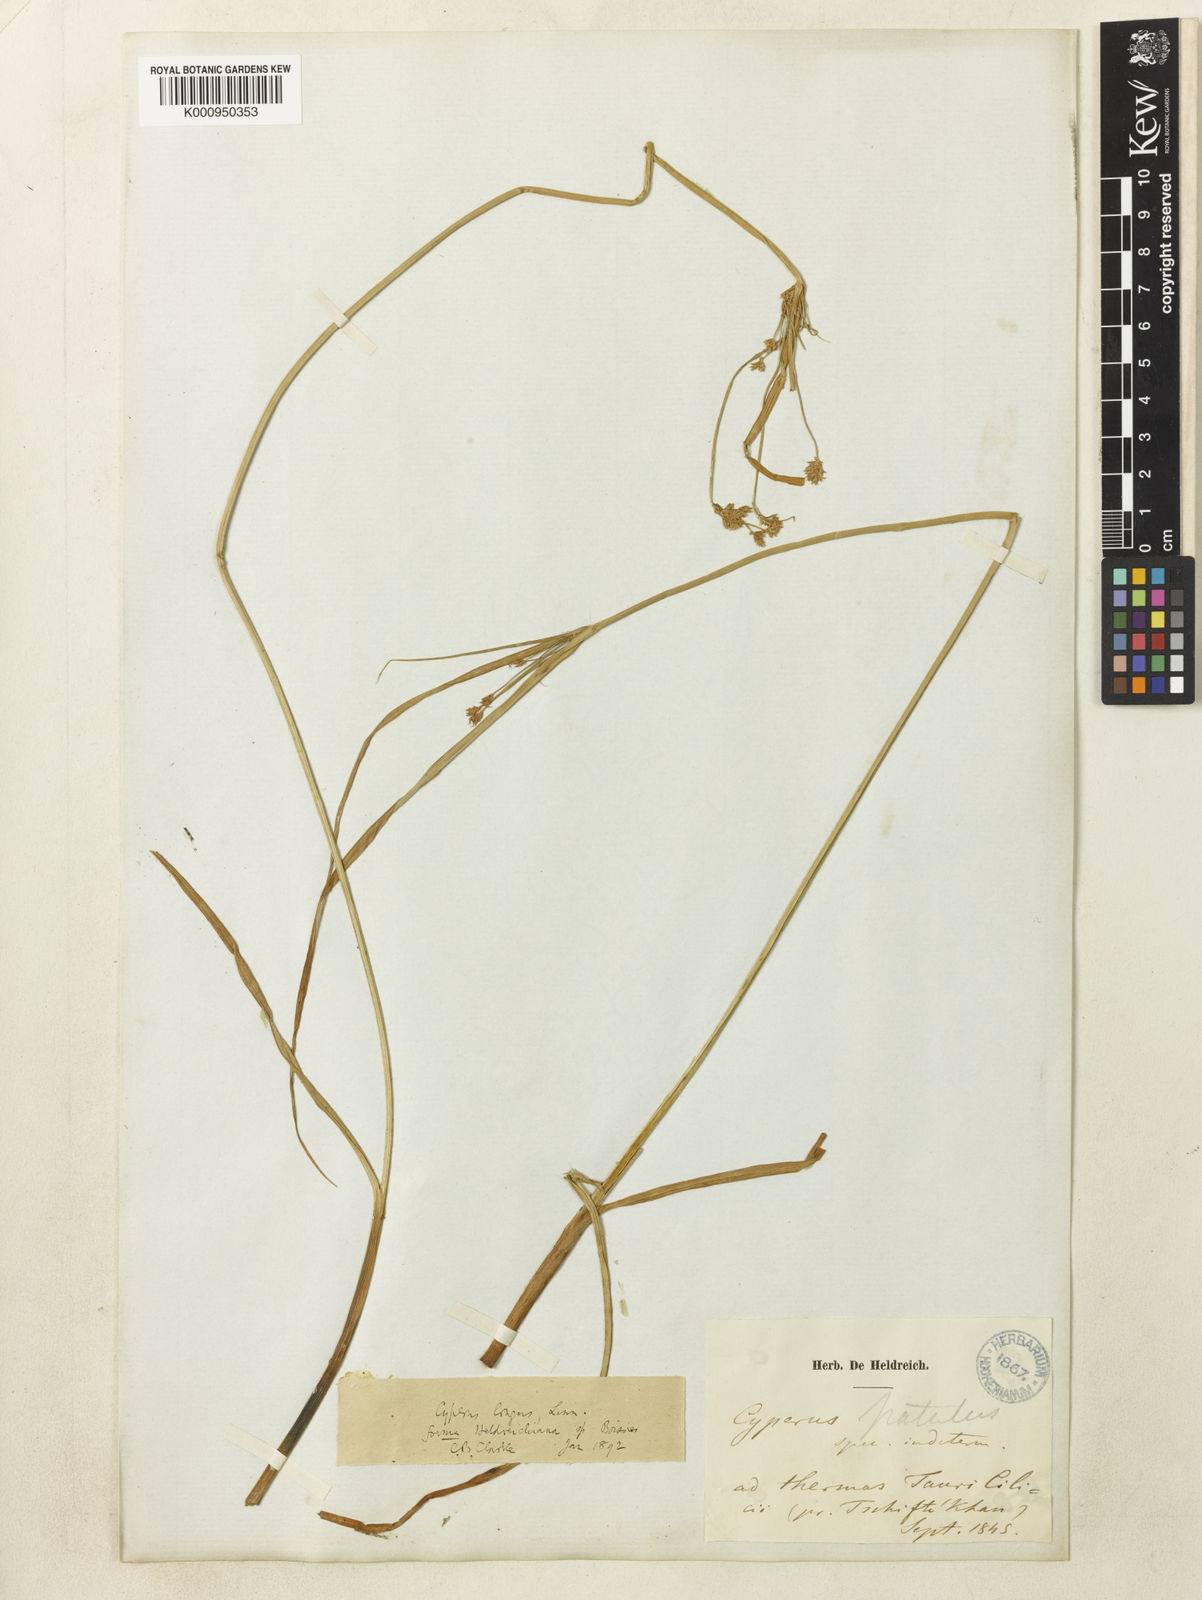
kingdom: Plantae
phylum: Tracheophyta
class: Liliopsida
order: Poales
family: Cyperaceae
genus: Cyperus
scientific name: Cyperus longus
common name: Galingale
